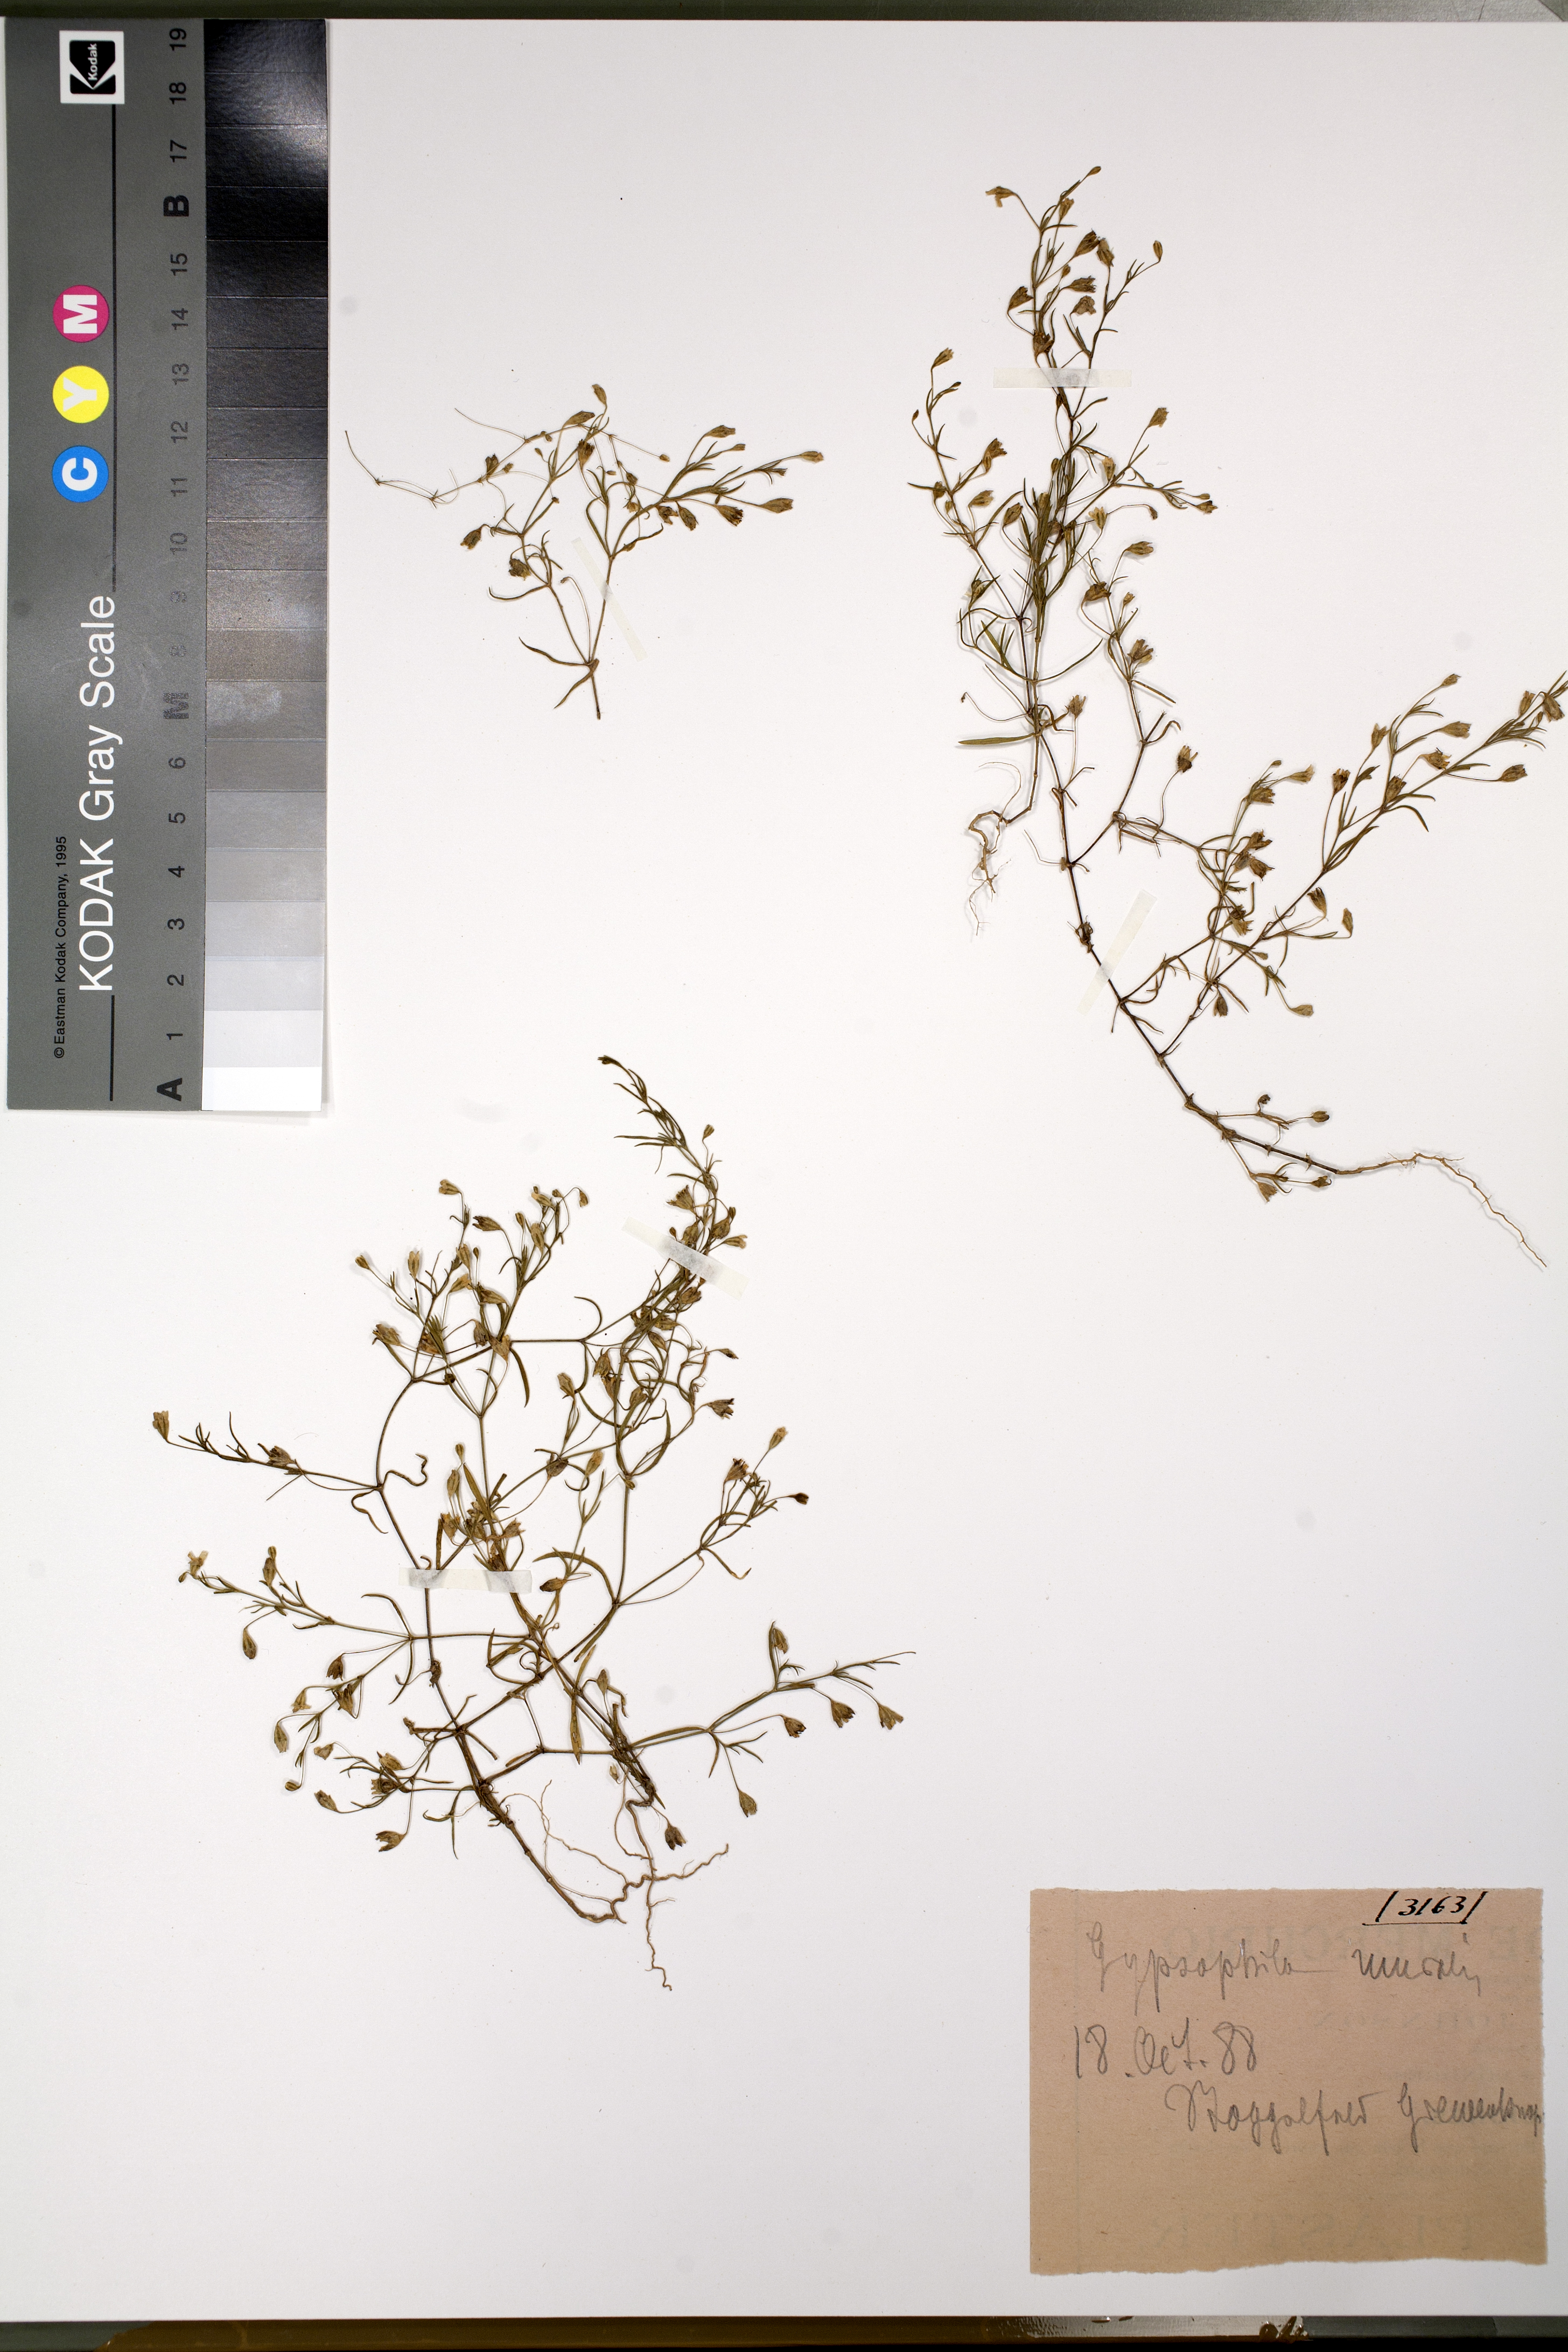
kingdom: Plantae
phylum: Tracheophyta
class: Magnoliopsida
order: Caryophyllales
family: Caryophyllaceae
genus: Psammophiliella
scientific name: Psammophiliella muralis
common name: Cushion baby's-breath
